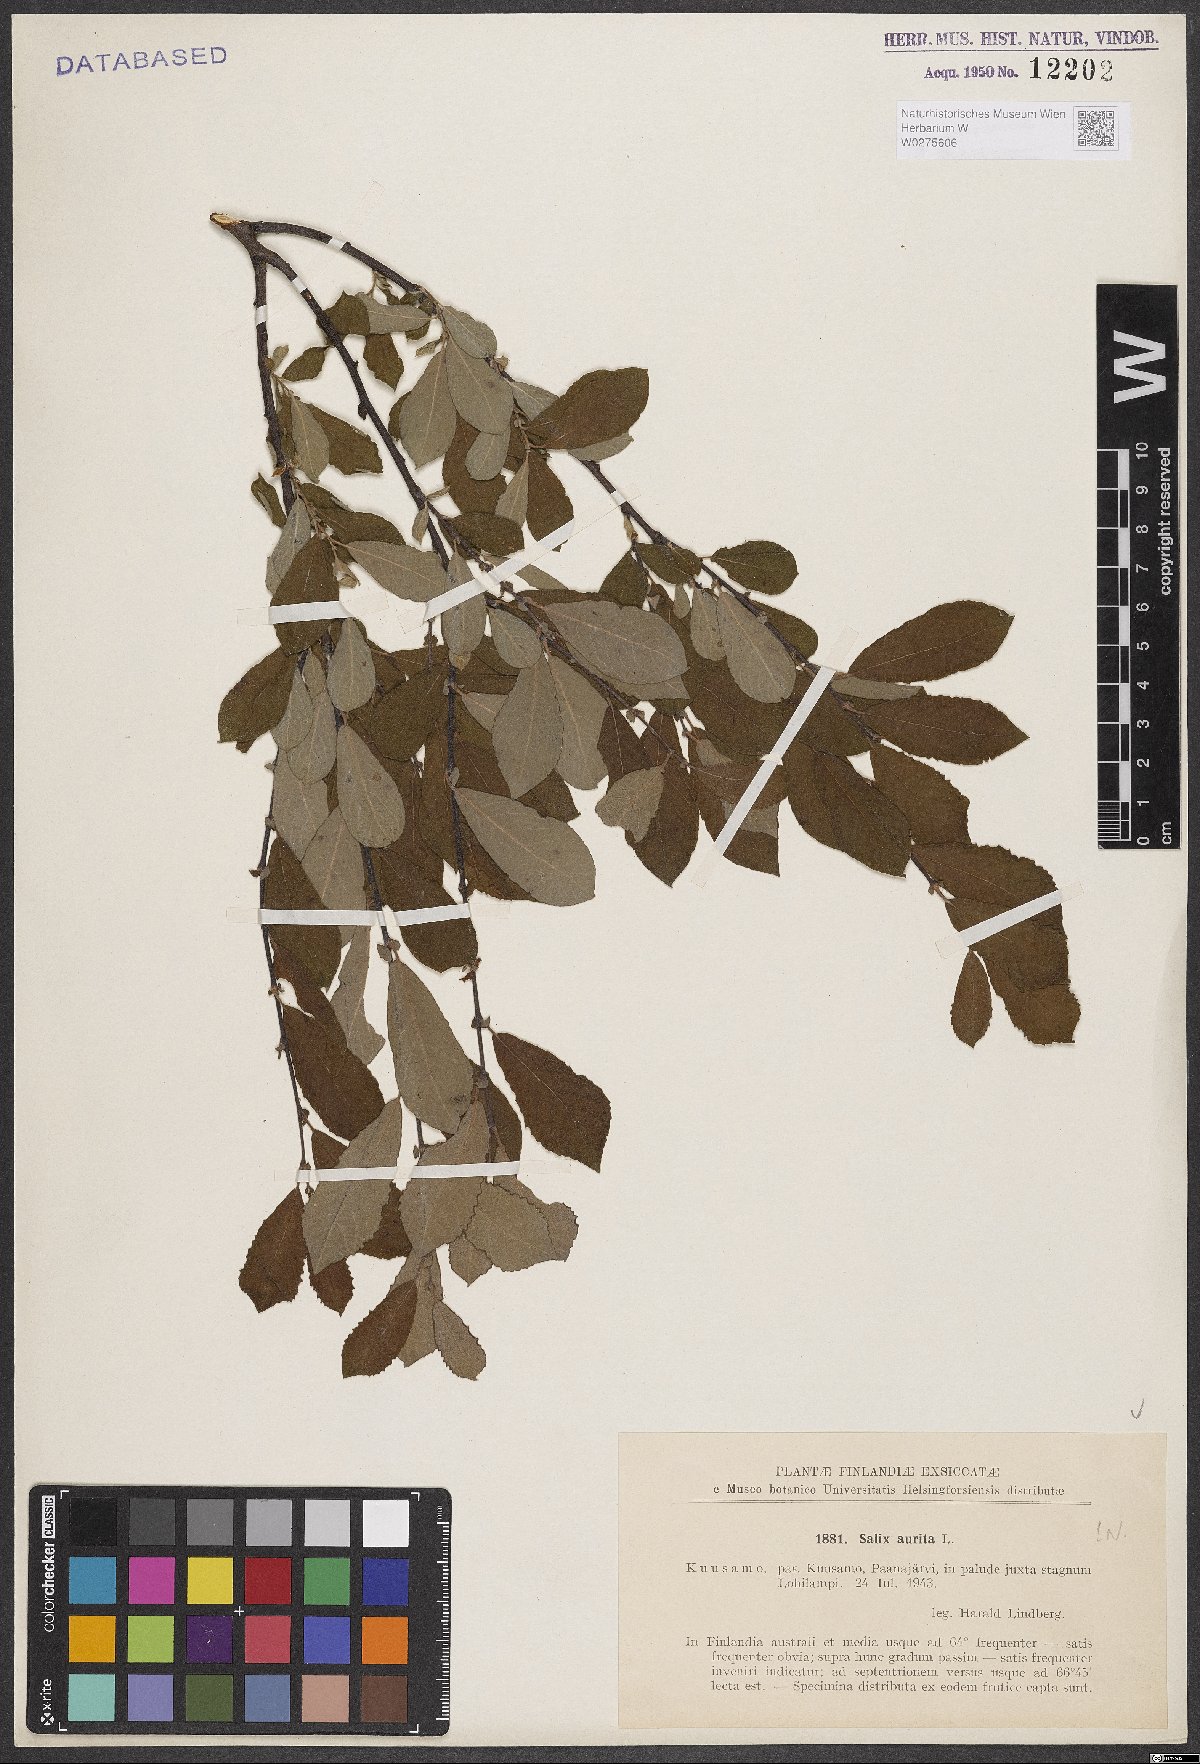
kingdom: Plantae
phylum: Tracheophyta
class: Magnoliopsida
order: Malpighiales
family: Salicaceae
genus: Salix
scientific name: Salix aurita
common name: Eared willow
